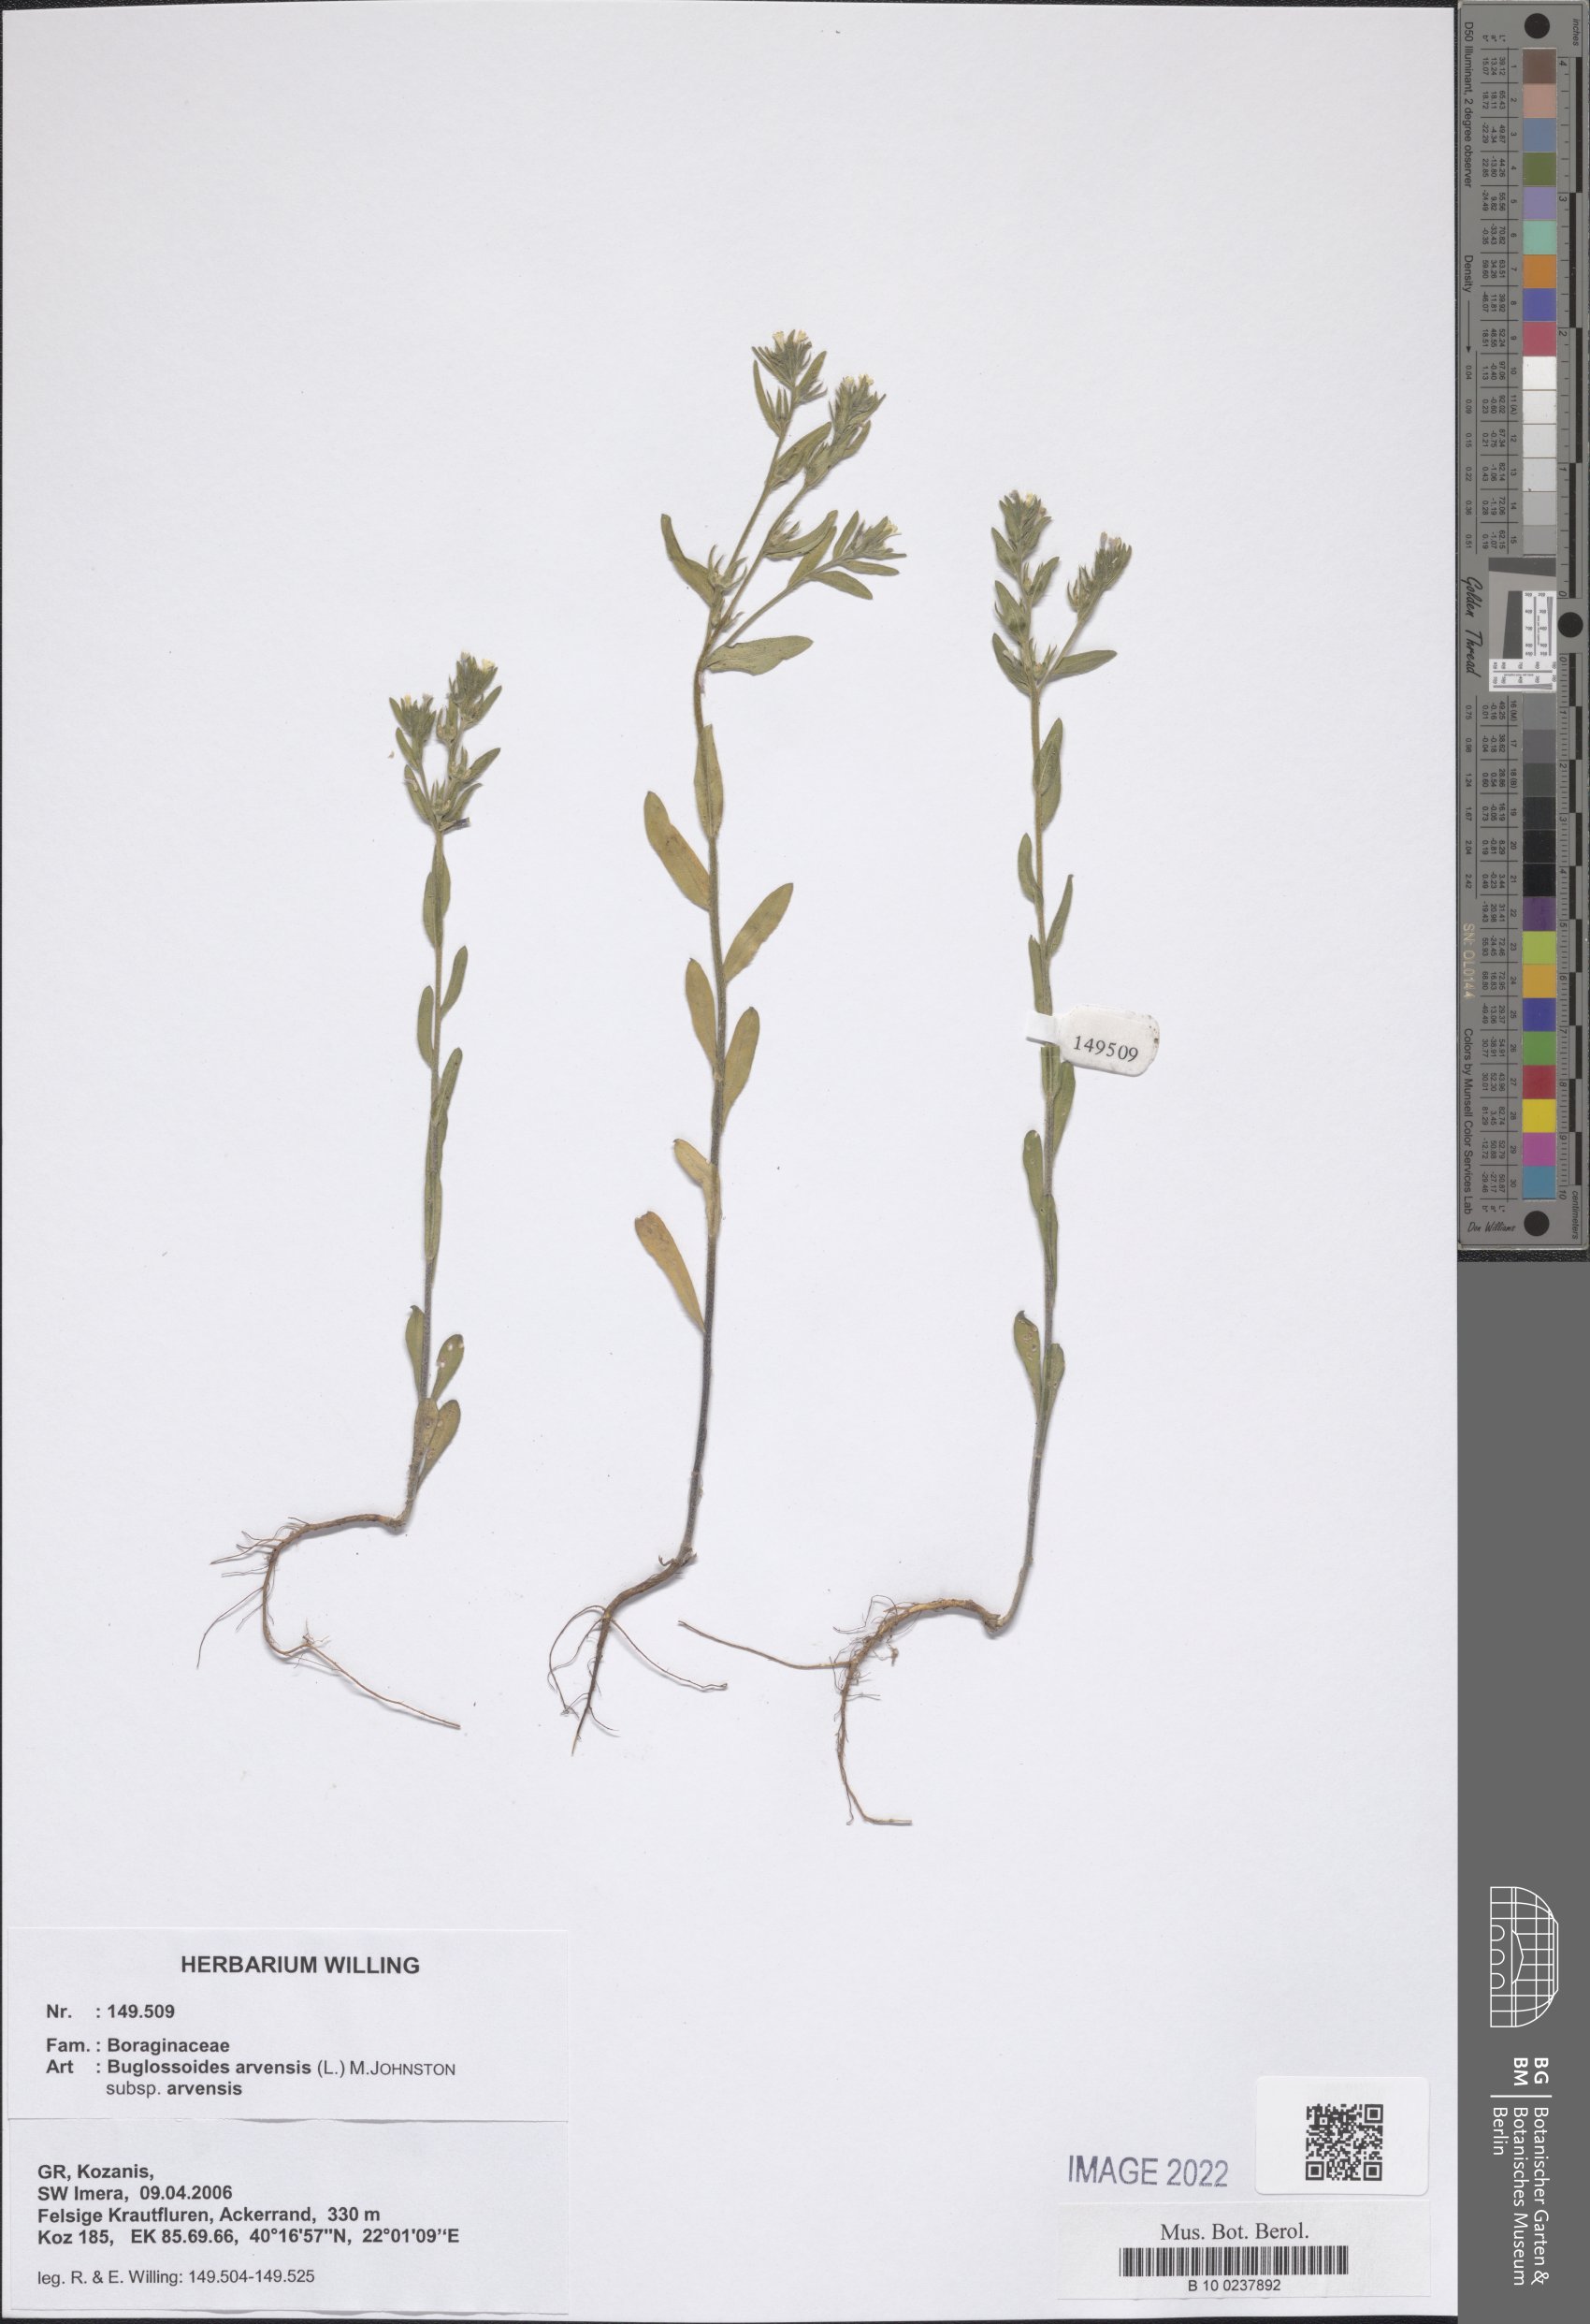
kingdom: Plantae
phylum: Tracheophyta
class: Magnoliopsida
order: Boraginales
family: Boraginaceae
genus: Buglossoides
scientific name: Buglossoides arvensis
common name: Corn gromwell
